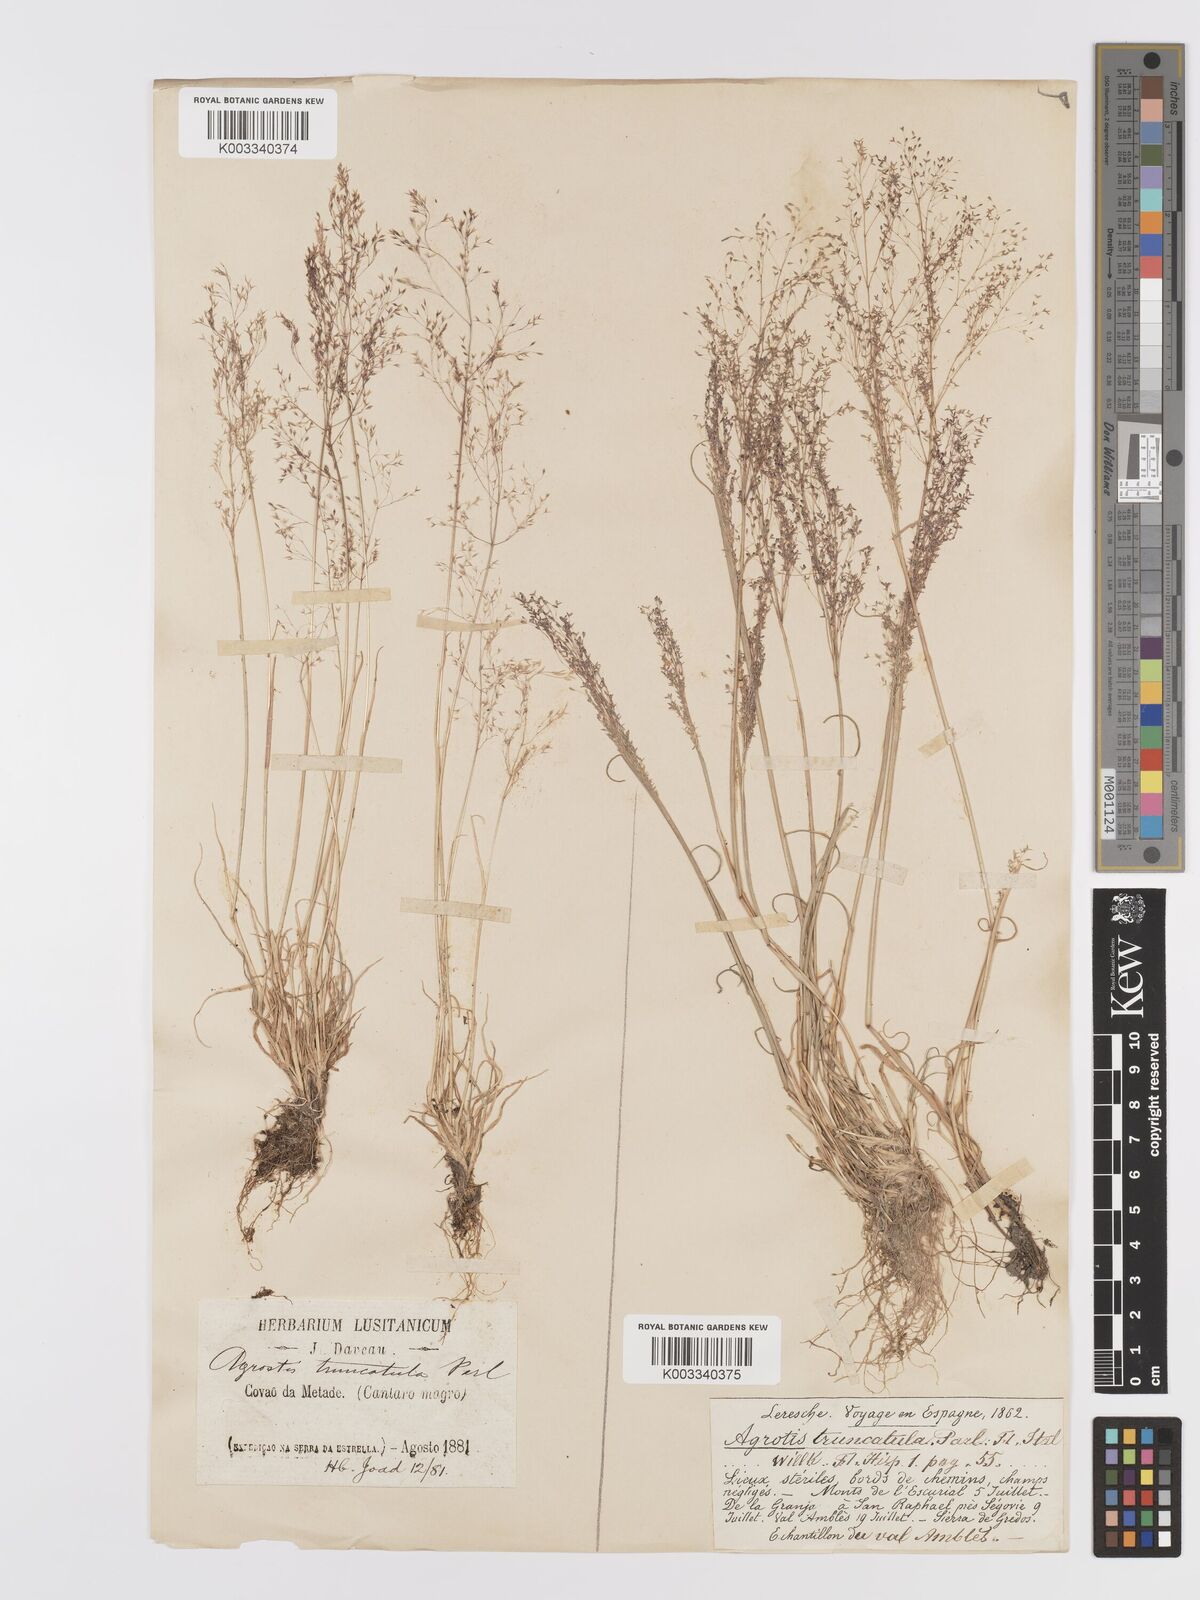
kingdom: Plantae
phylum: Tracheophyta
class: Liliopsida
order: Poales
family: Poaceae
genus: Agrostis
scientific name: Agrostis castellana
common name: Highland bent
